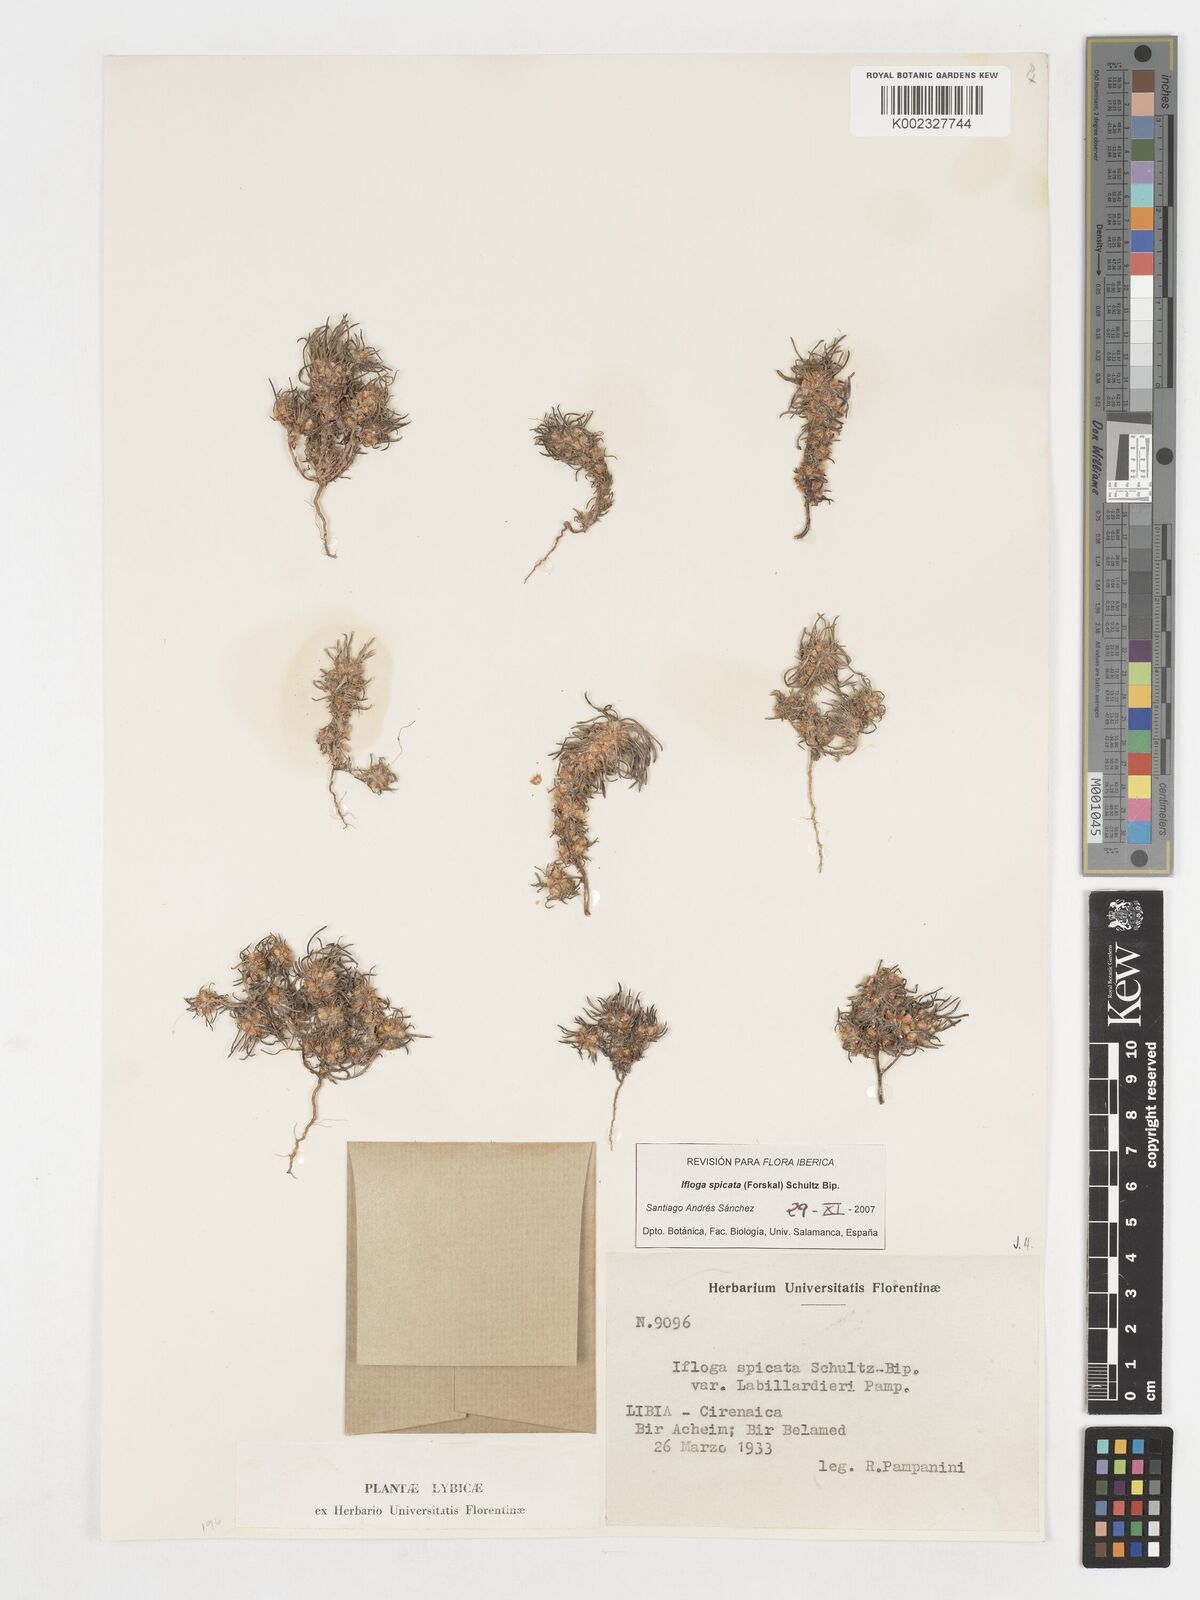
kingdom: Plantae
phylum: Tracheophyta
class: Magnoliopsida
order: Asterales
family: Asteraceae
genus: Ifloga
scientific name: Ifloga spicata
